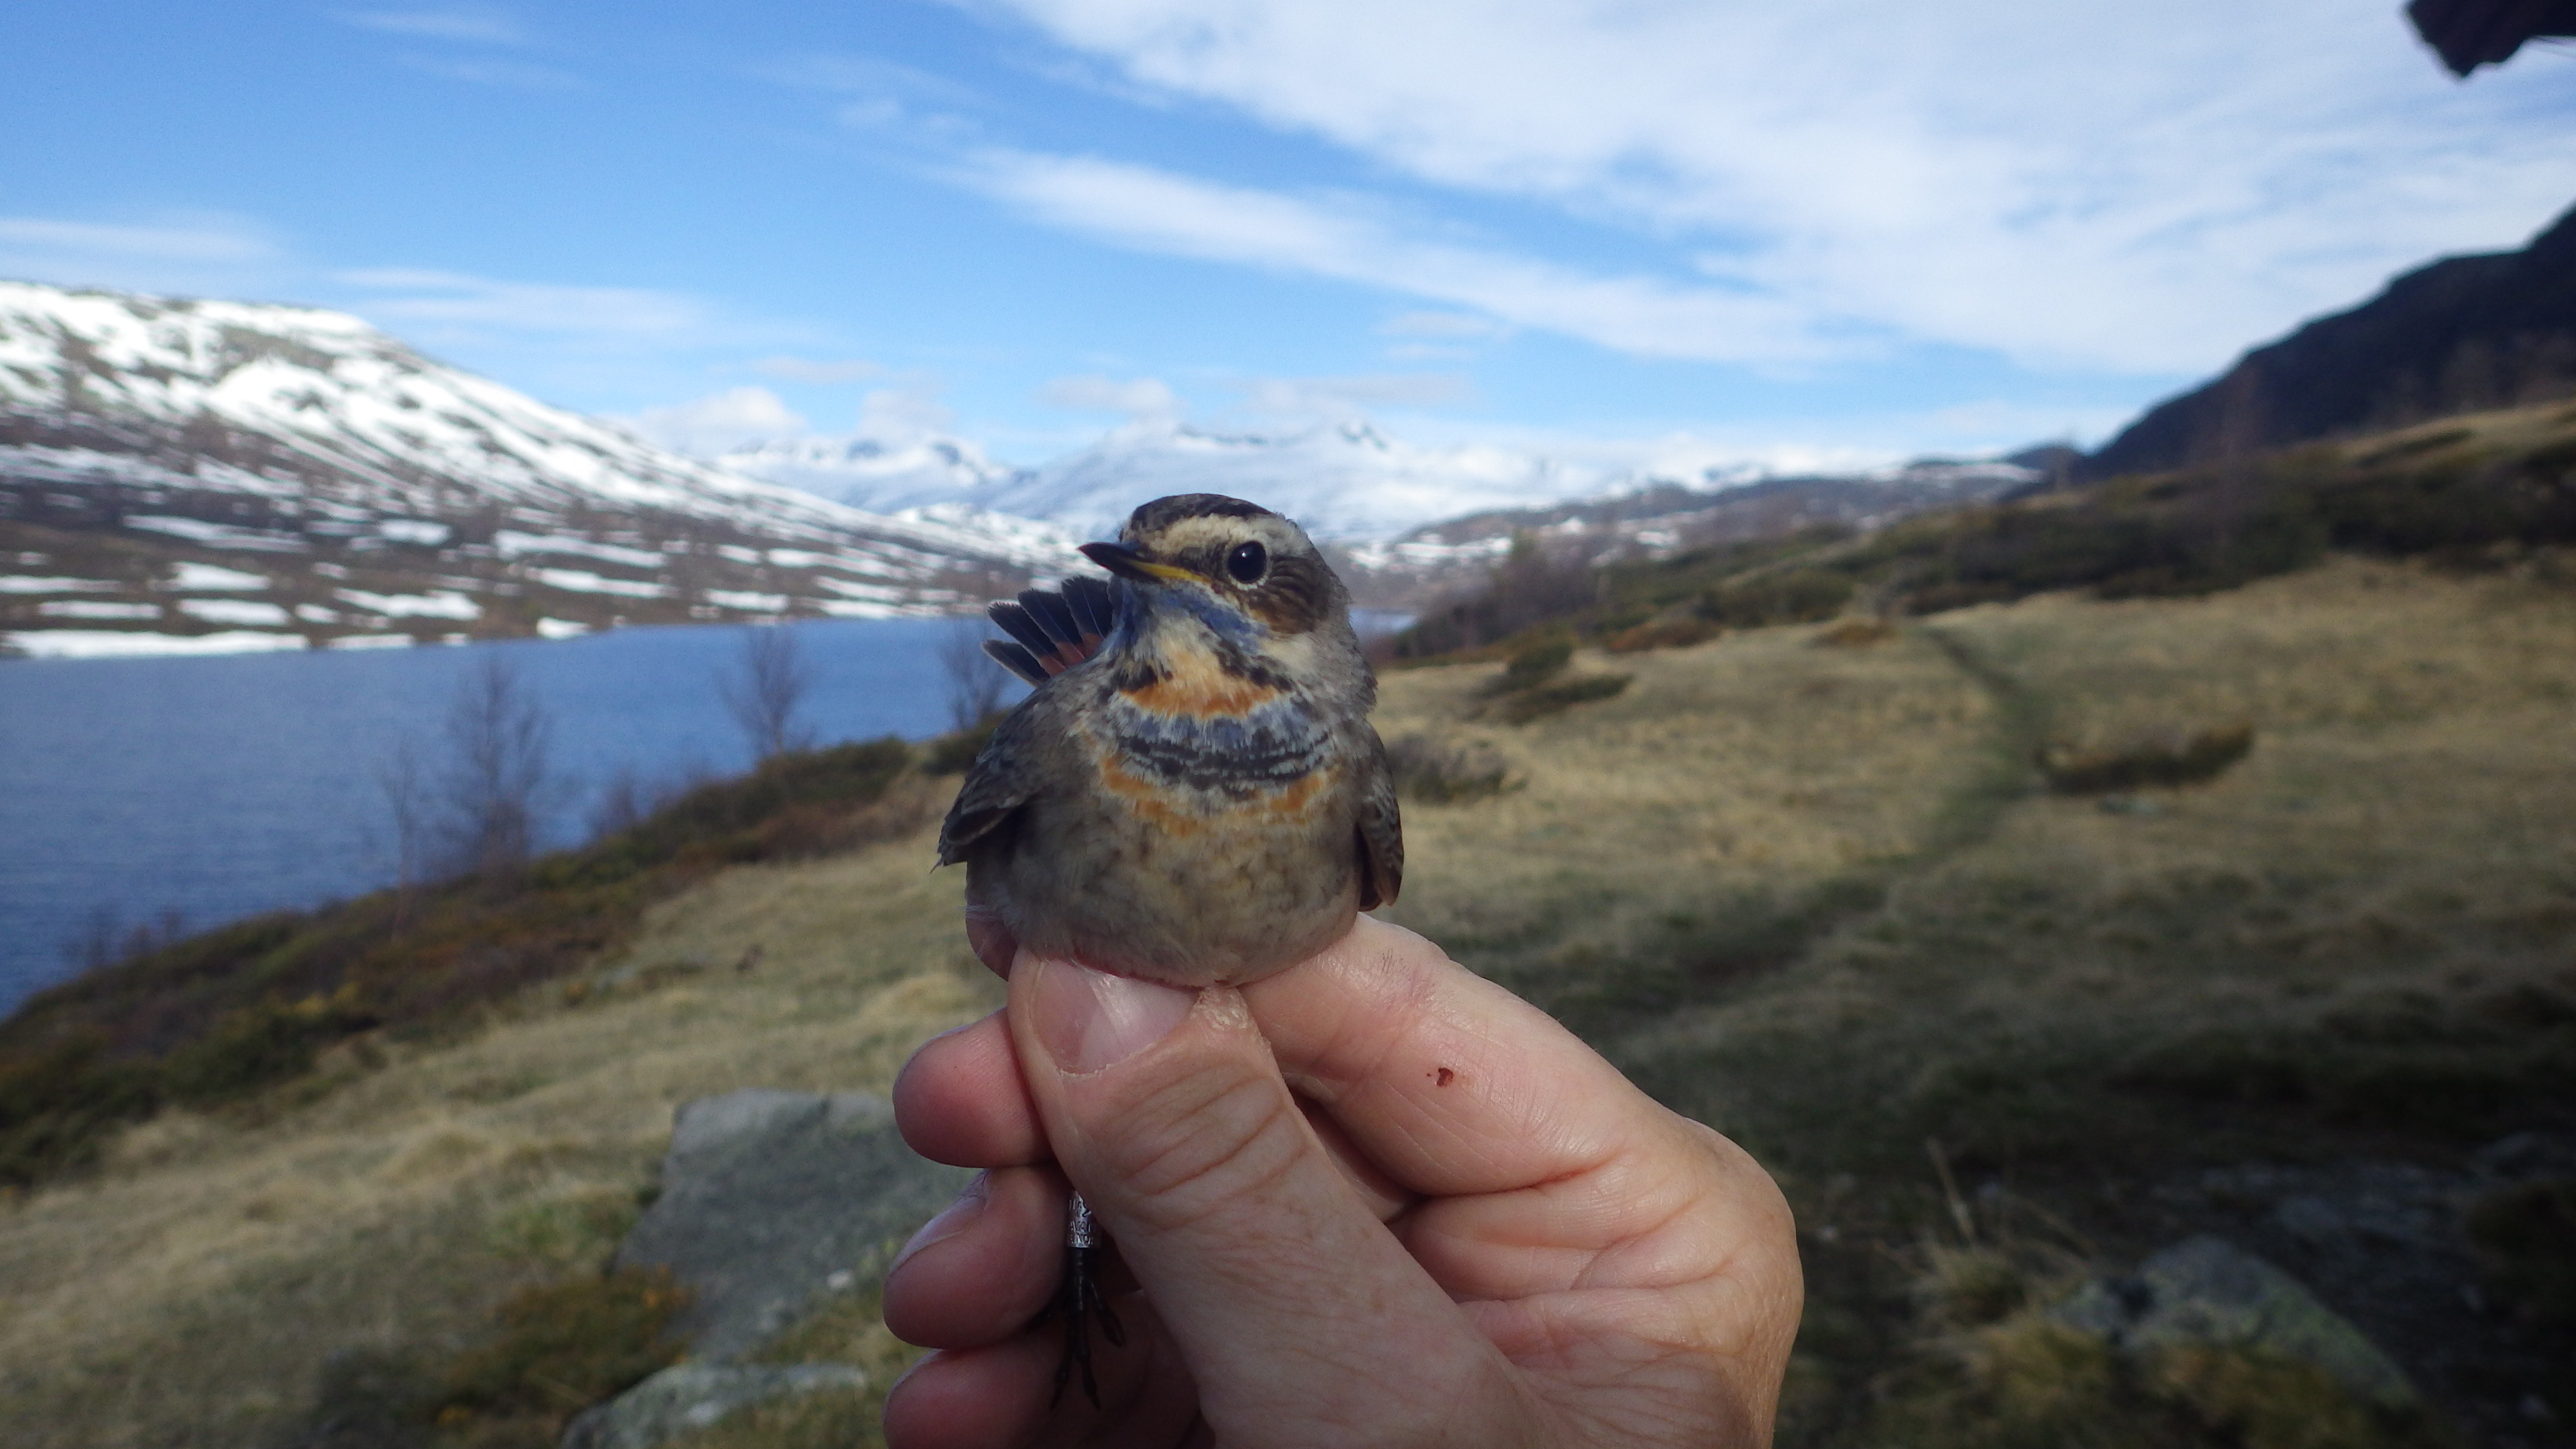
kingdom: Animalia
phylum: Chordata
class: Aves
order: Passeriformes
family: Muscicapidae
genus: Luscinia
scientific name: Luscinia svecica
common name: Bluethroat
